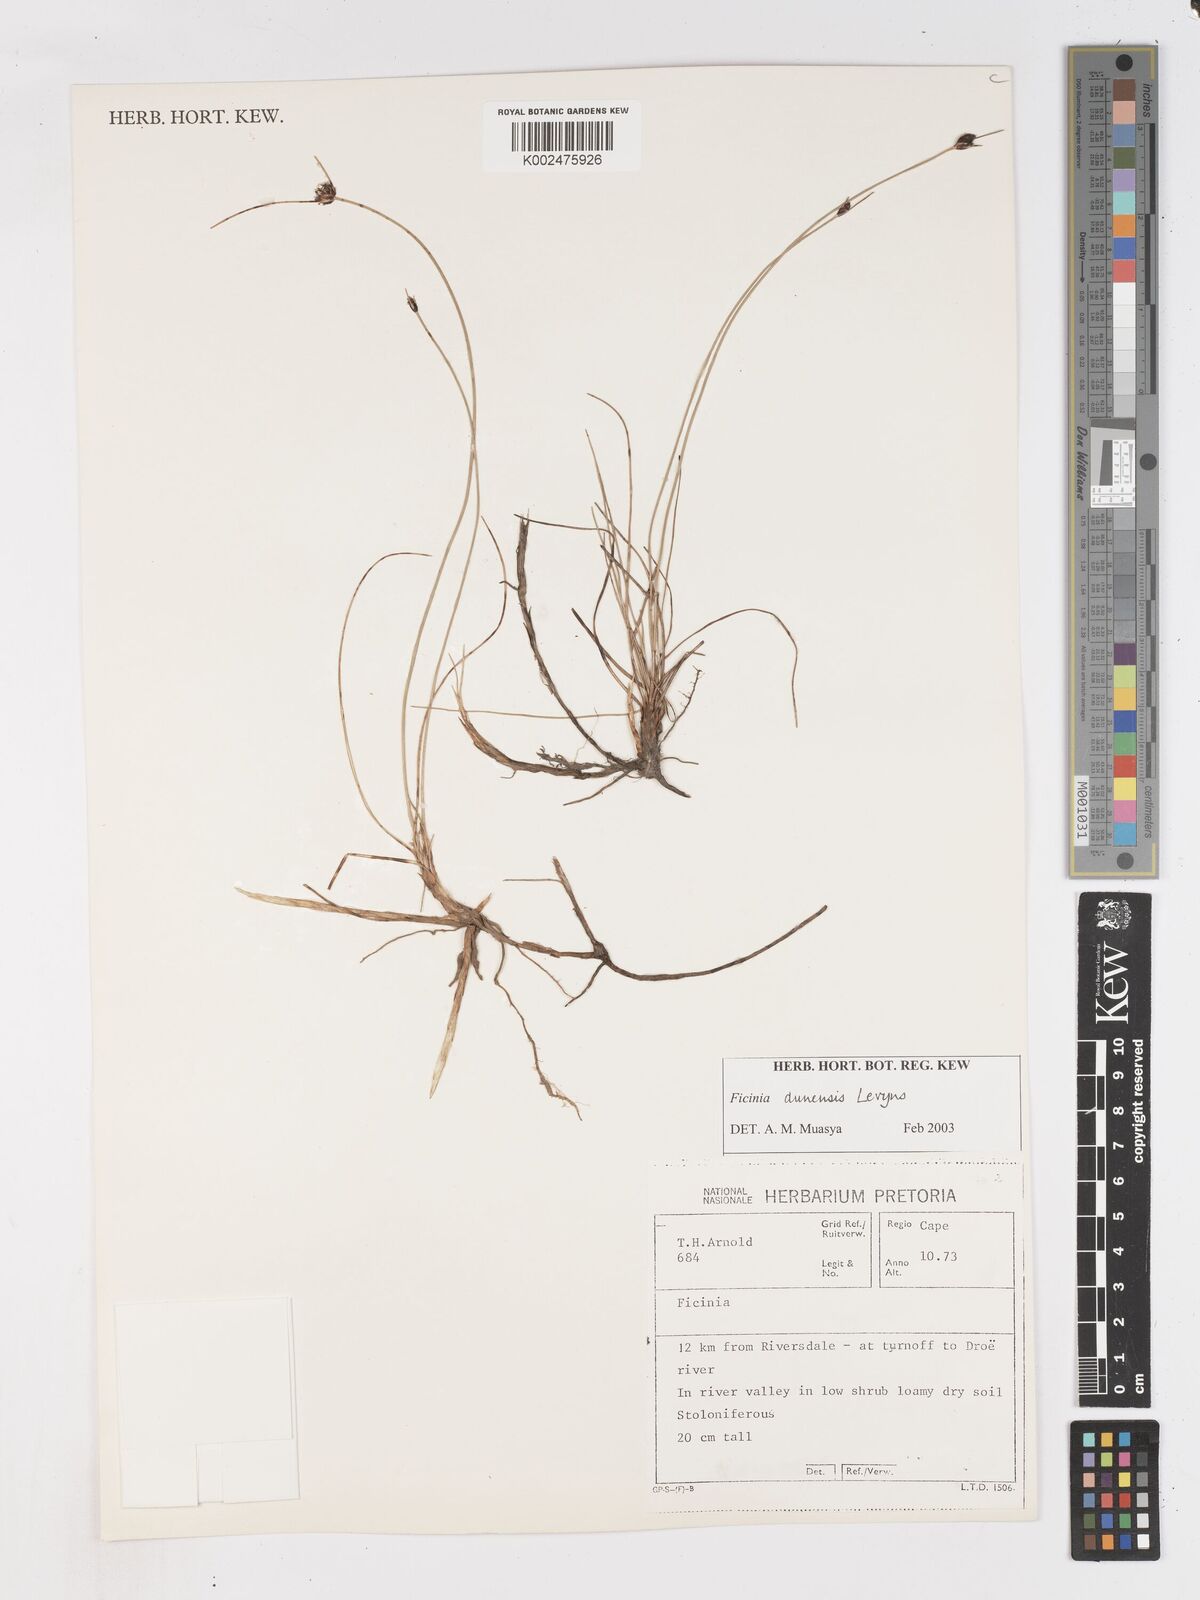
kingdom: Plantae
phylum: Tracheophyta
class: Liliopsida
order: Poales
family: Cyperaceae
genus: Ficinia
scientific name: Ficinia dunensis
